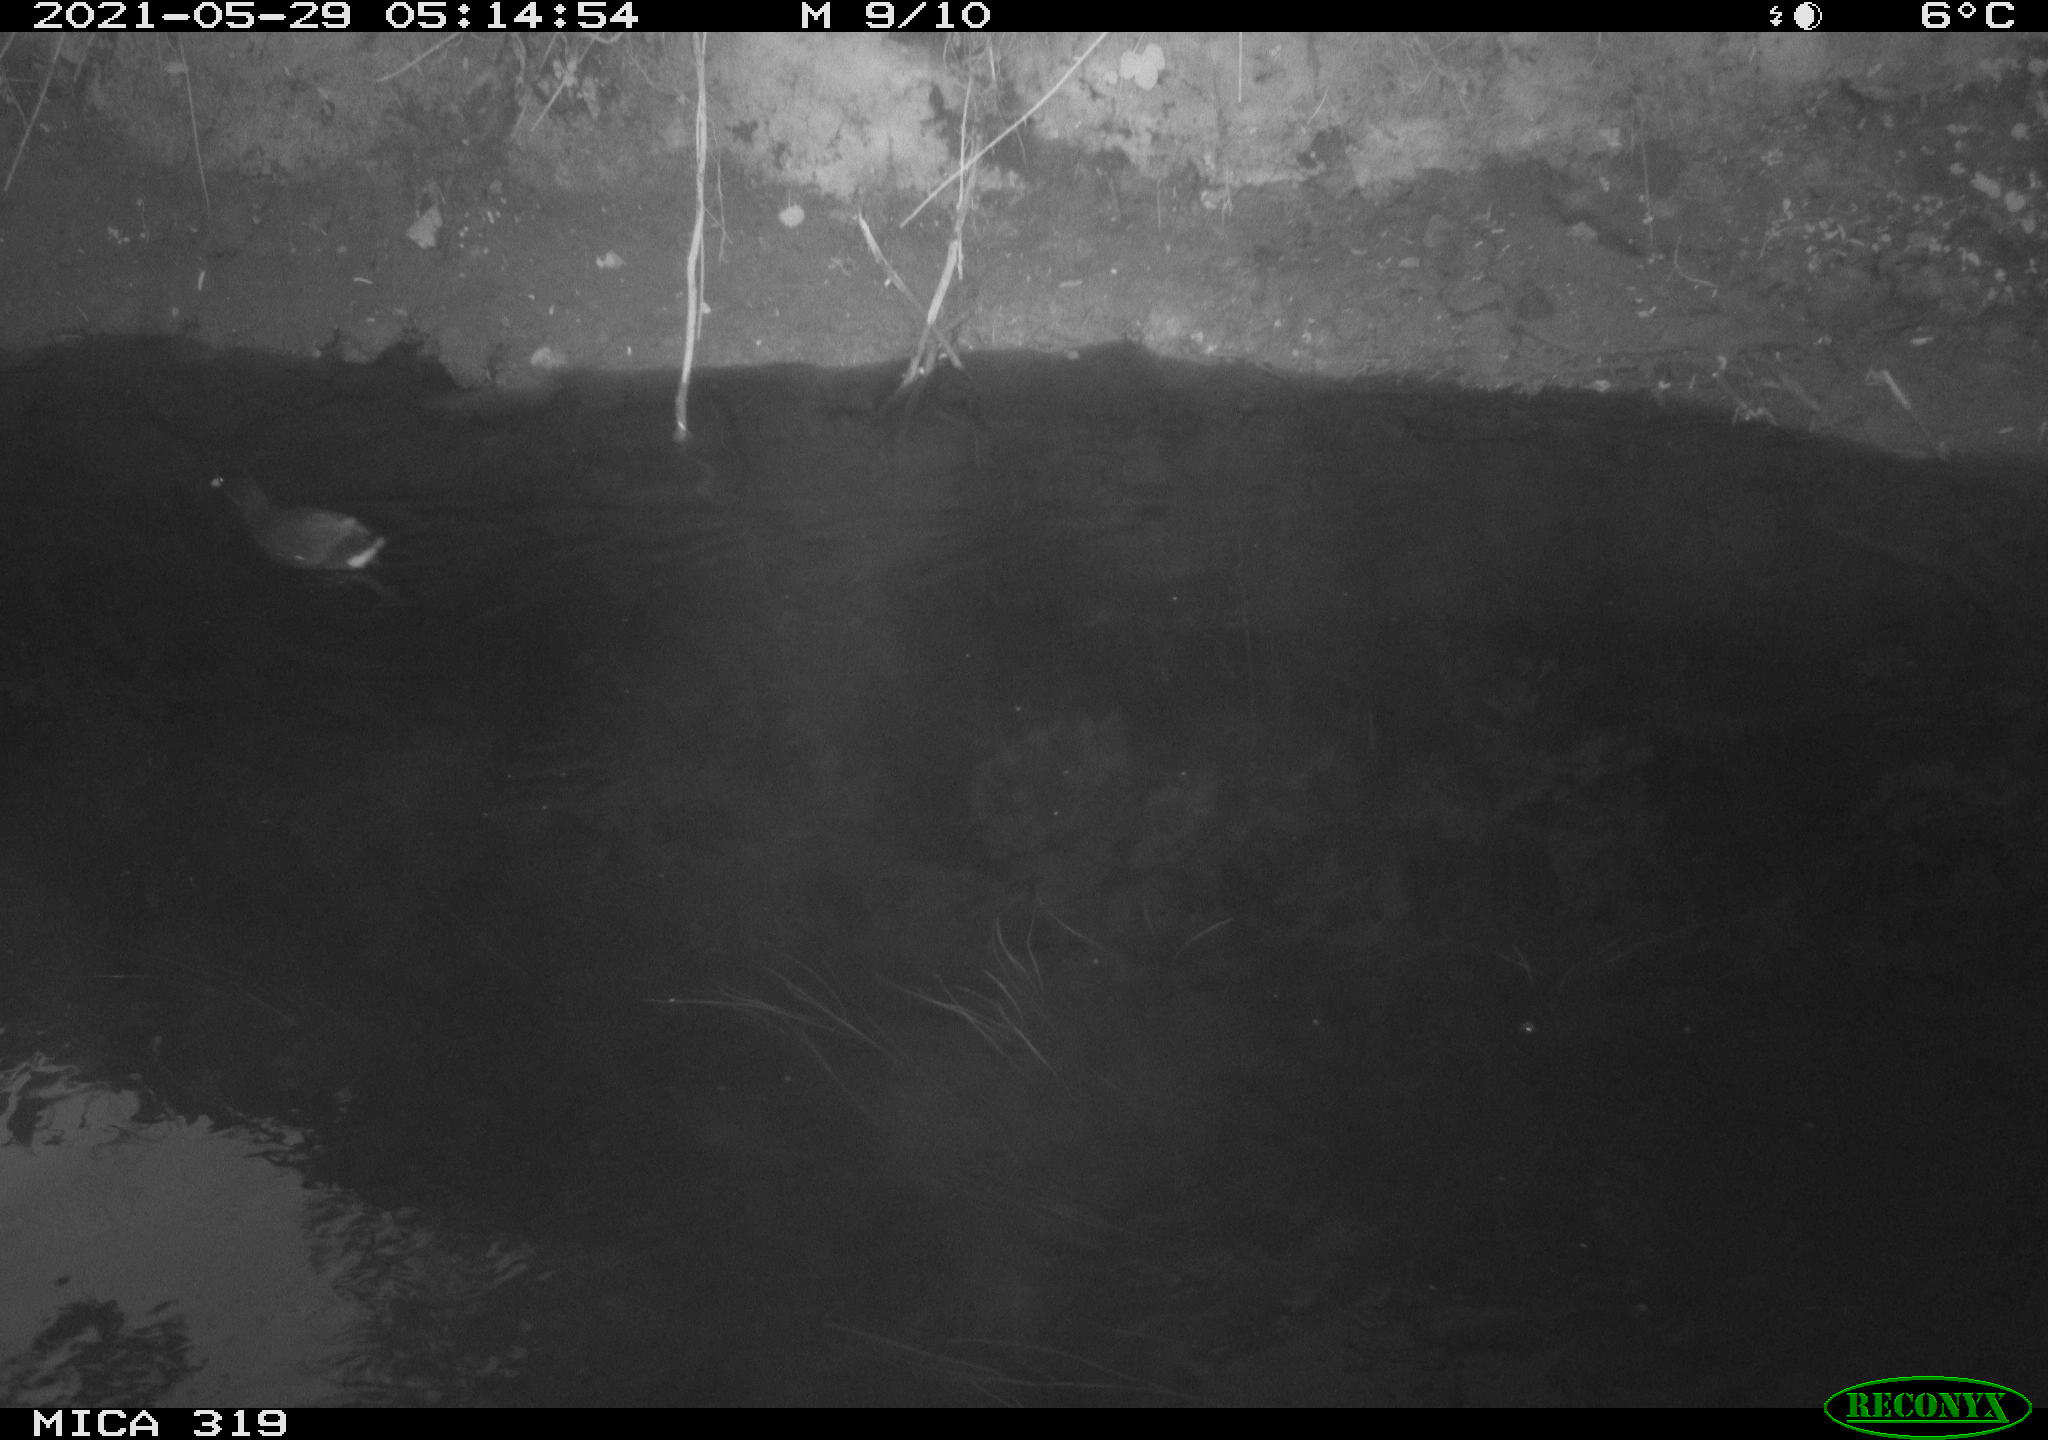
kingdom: Animalia
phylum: Chordata
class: Aves
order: Gruiformes
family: Rallidae
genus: Gallinula
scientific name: Gallinula chloropus
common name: Common moorhen
